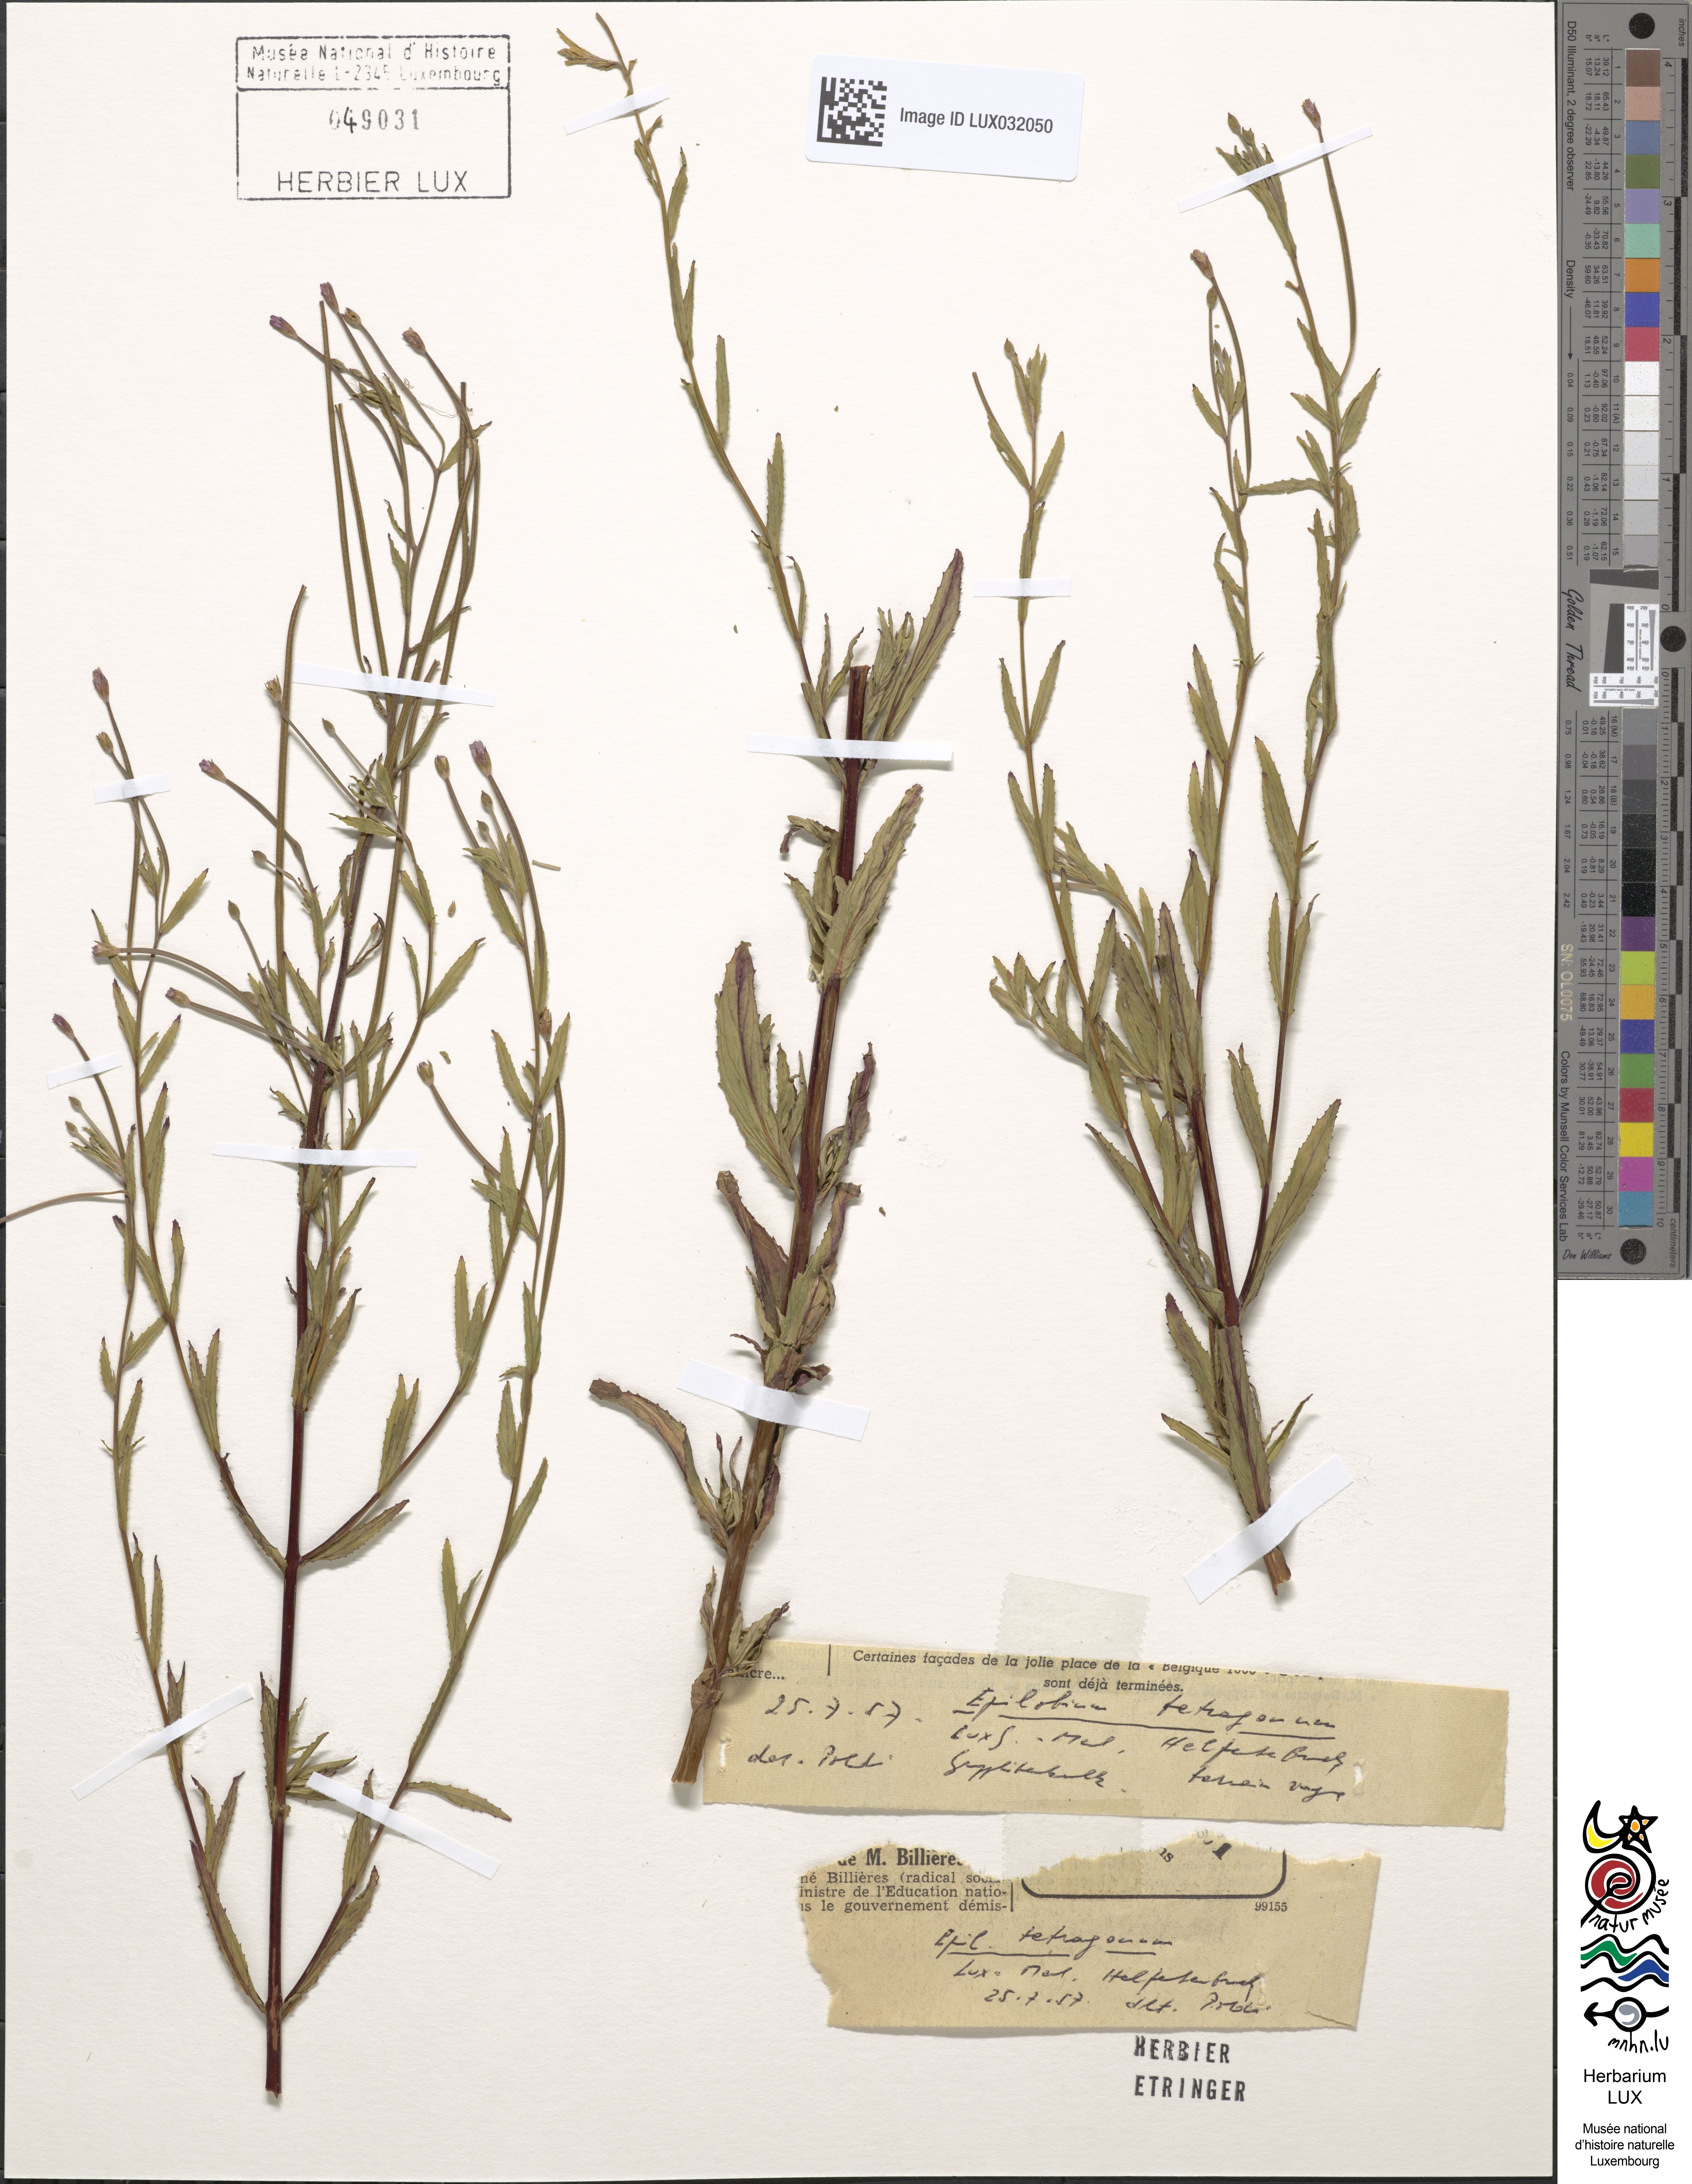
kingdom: Plantae
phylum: Tracheophyta
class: Magnoliopsida
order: Myrtales
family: Onagraceae
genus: Epilobium
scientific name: Epilobium tetragonum
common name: Square-stemmed willowherb
